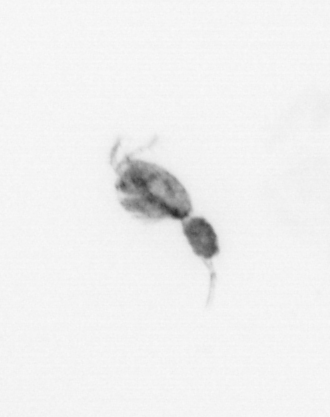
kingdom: Animalia
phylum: Arthropoda
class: Copepoda
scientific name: Copepoda
